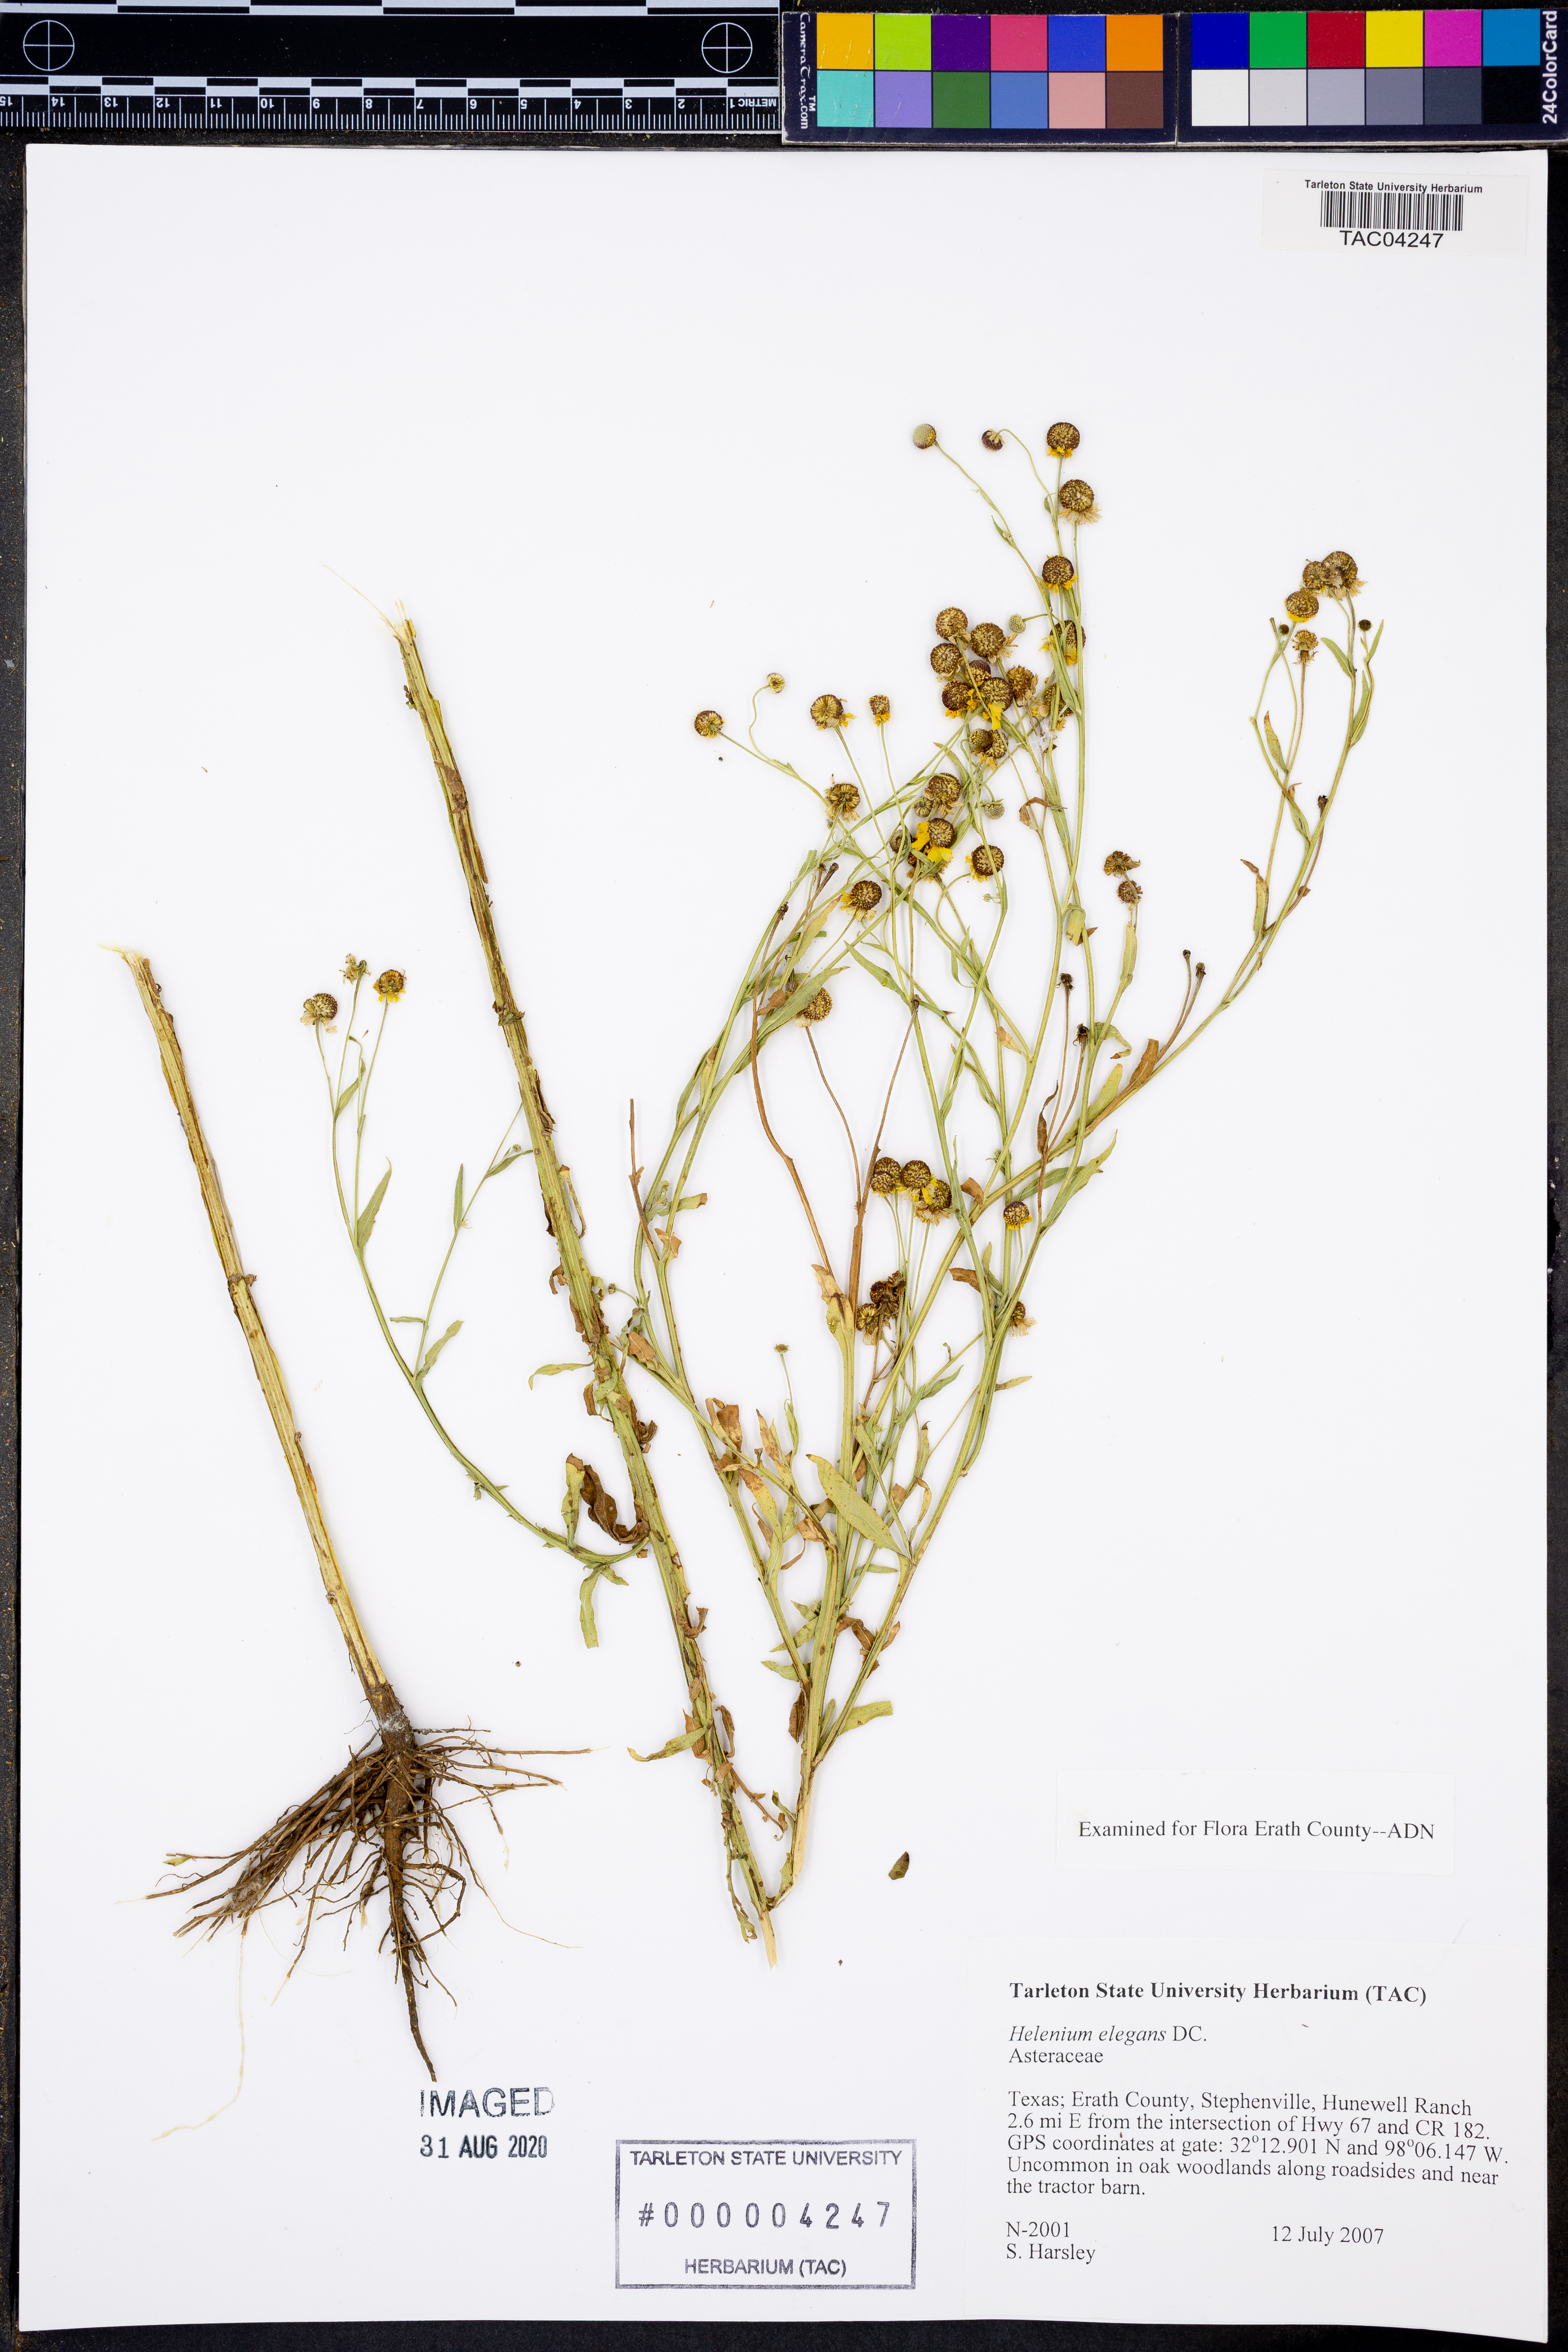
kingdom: Plantae
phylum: Tracheophyta
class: Magnoliopsida
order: Asterales
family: Asteraceae
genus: Helenium
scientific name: Helenium elegans
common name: Pretty sneezeweed
